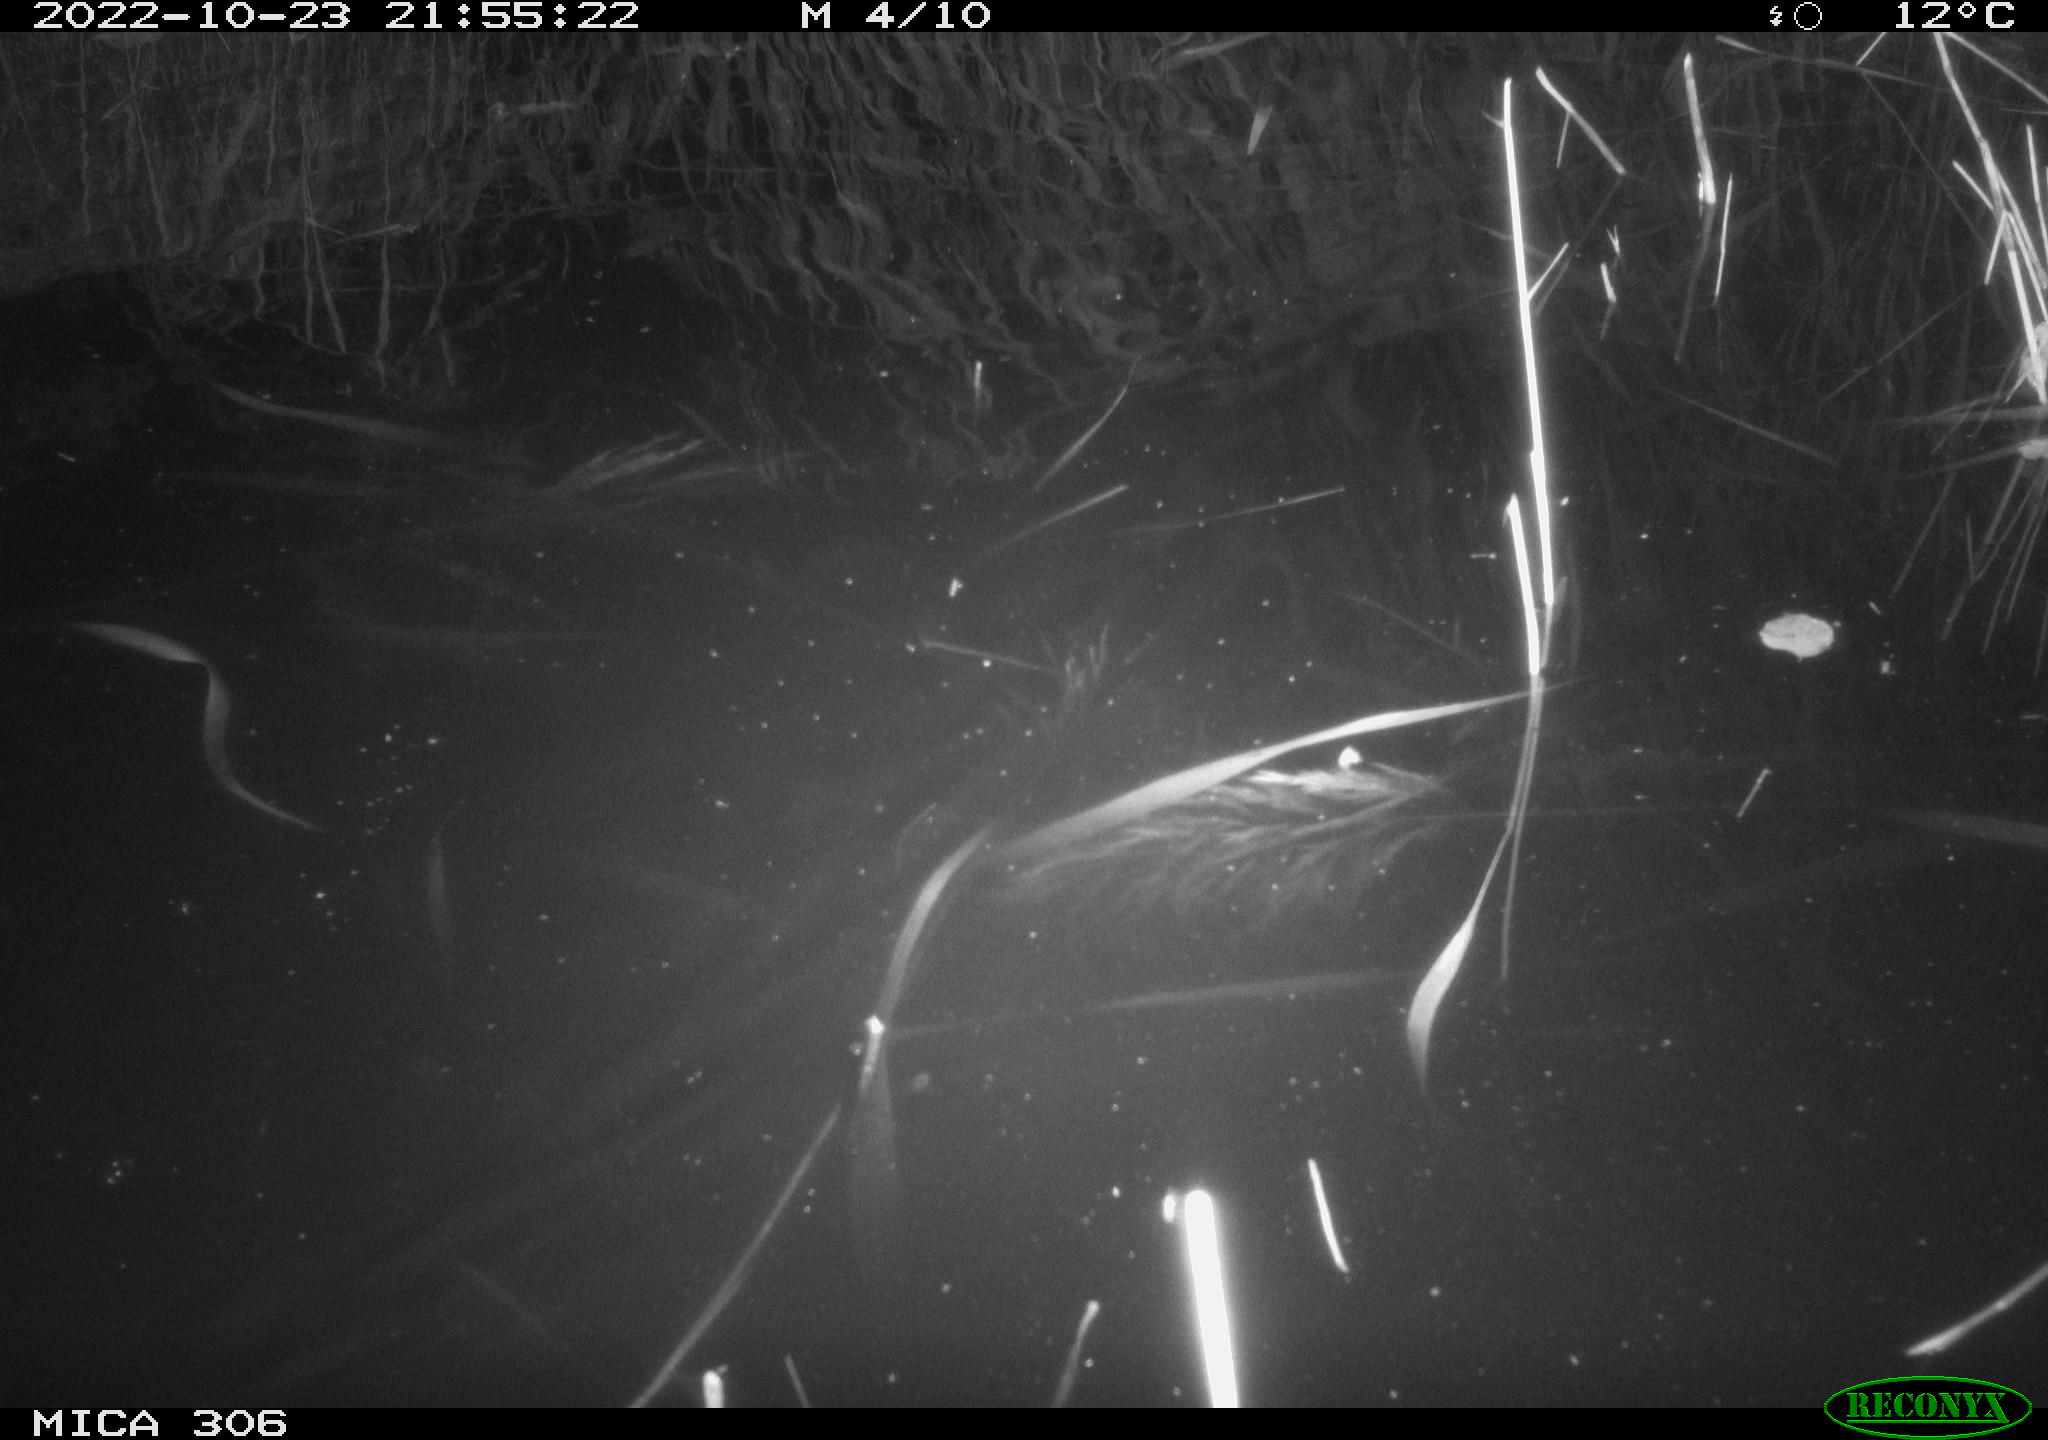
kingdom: Animalia
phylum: Chordata
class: Mammalia
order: Rodentia
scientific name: Rodentia
